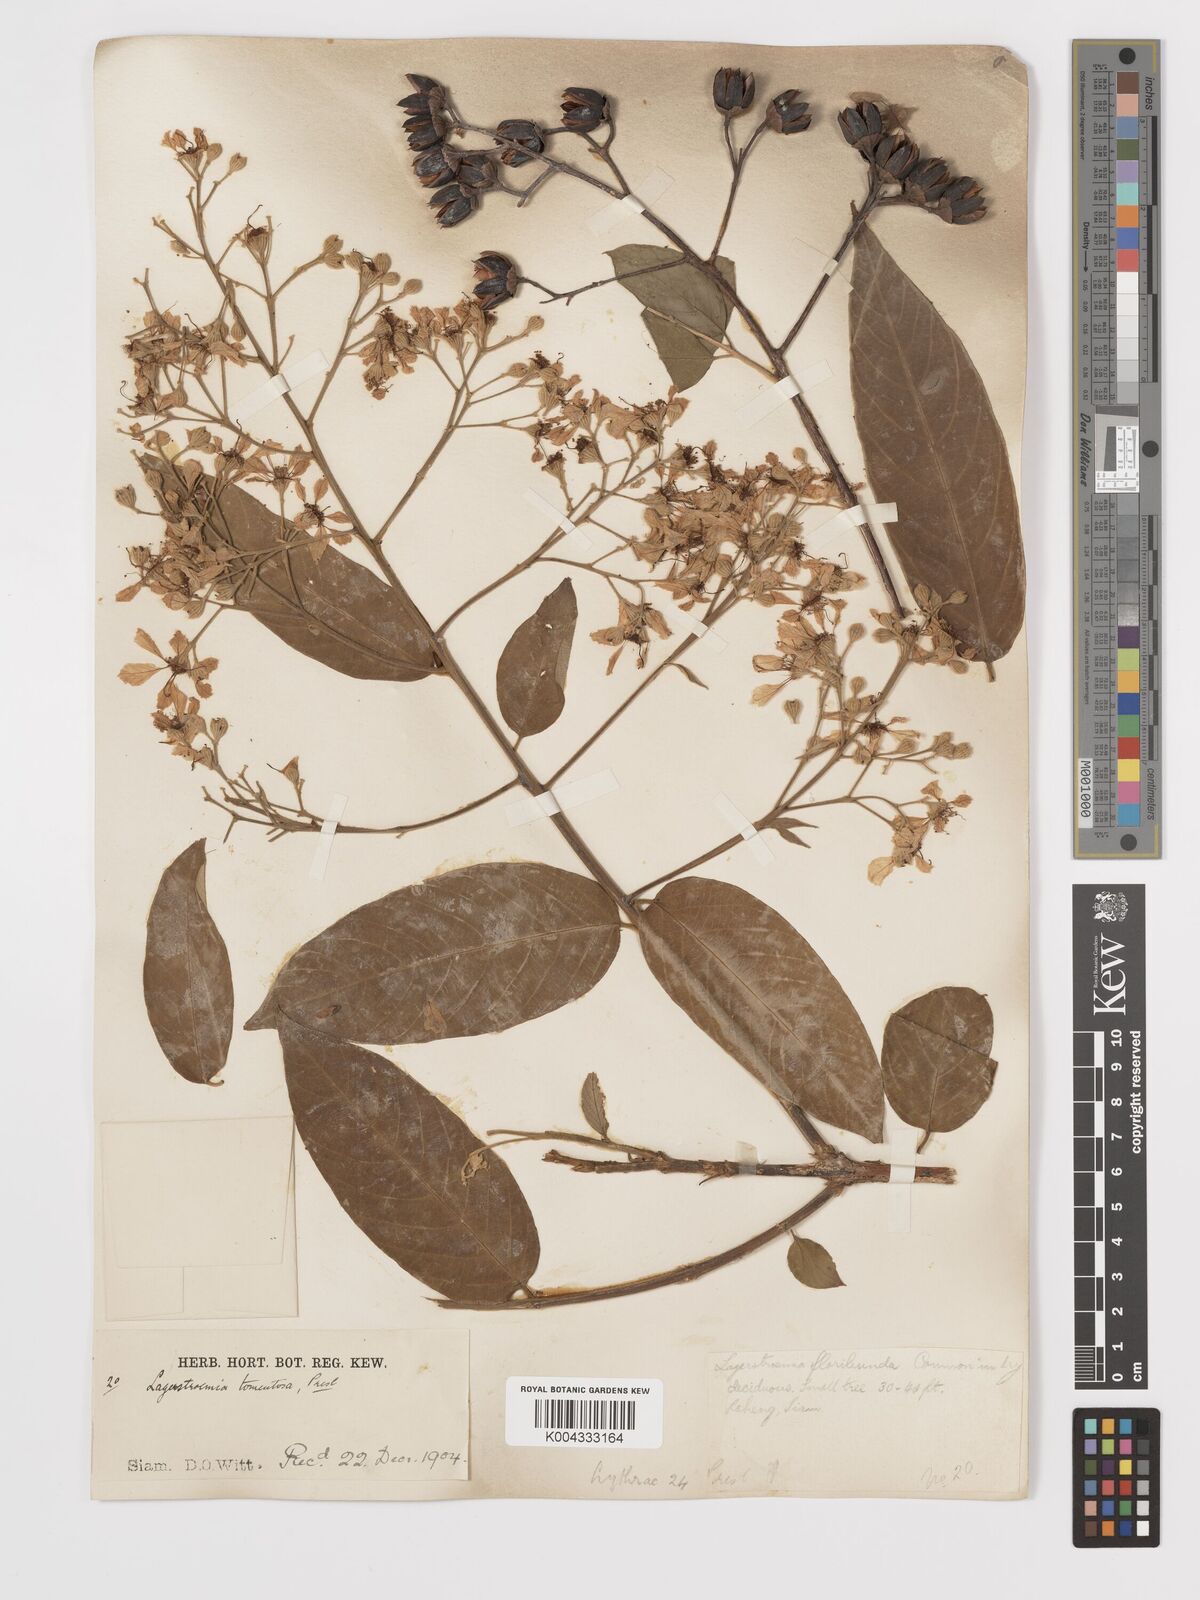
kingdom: Plantae
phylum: Tracheophyta
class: Magnoliopsida
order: Myrtales
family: Lythraceae
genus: Lagerstroemia
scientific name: Lagerstroemia tomentosa
